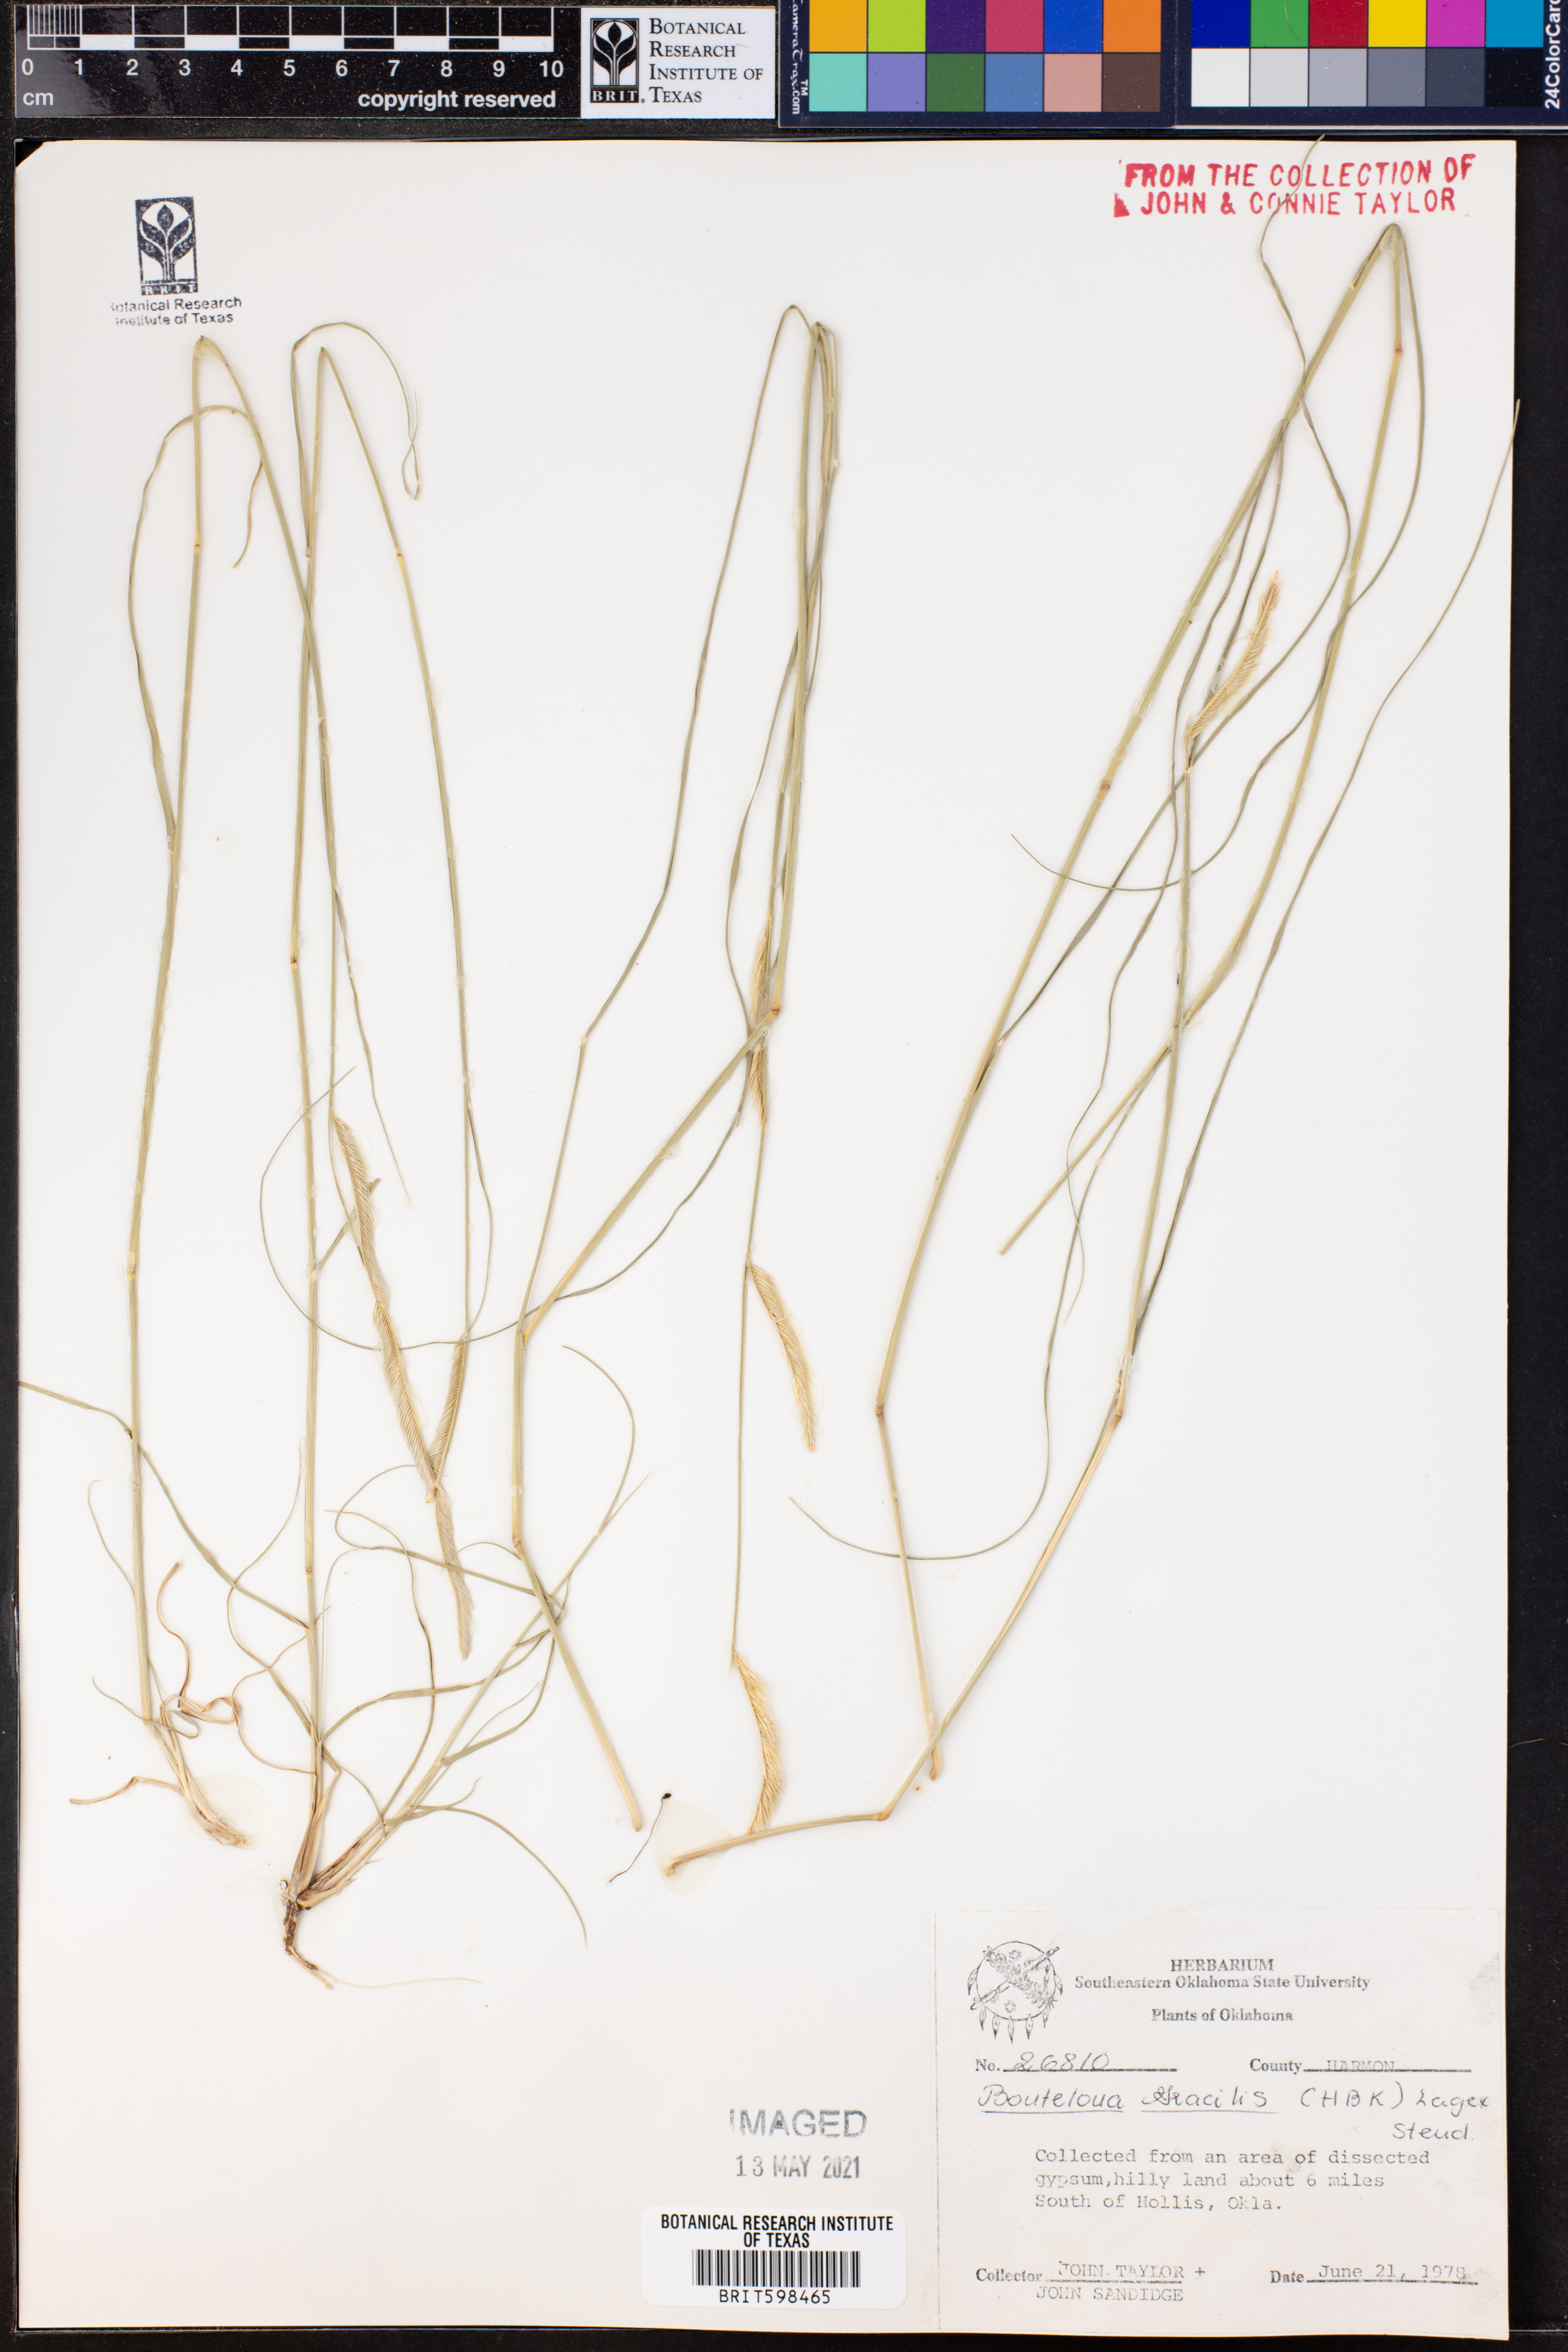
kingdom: Plantae
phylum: Tracheophyta
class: Liliopsida
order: Poales
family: Poaceae
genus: Bouteloua
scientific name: Bouteloua gracilis
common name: Blue grama
